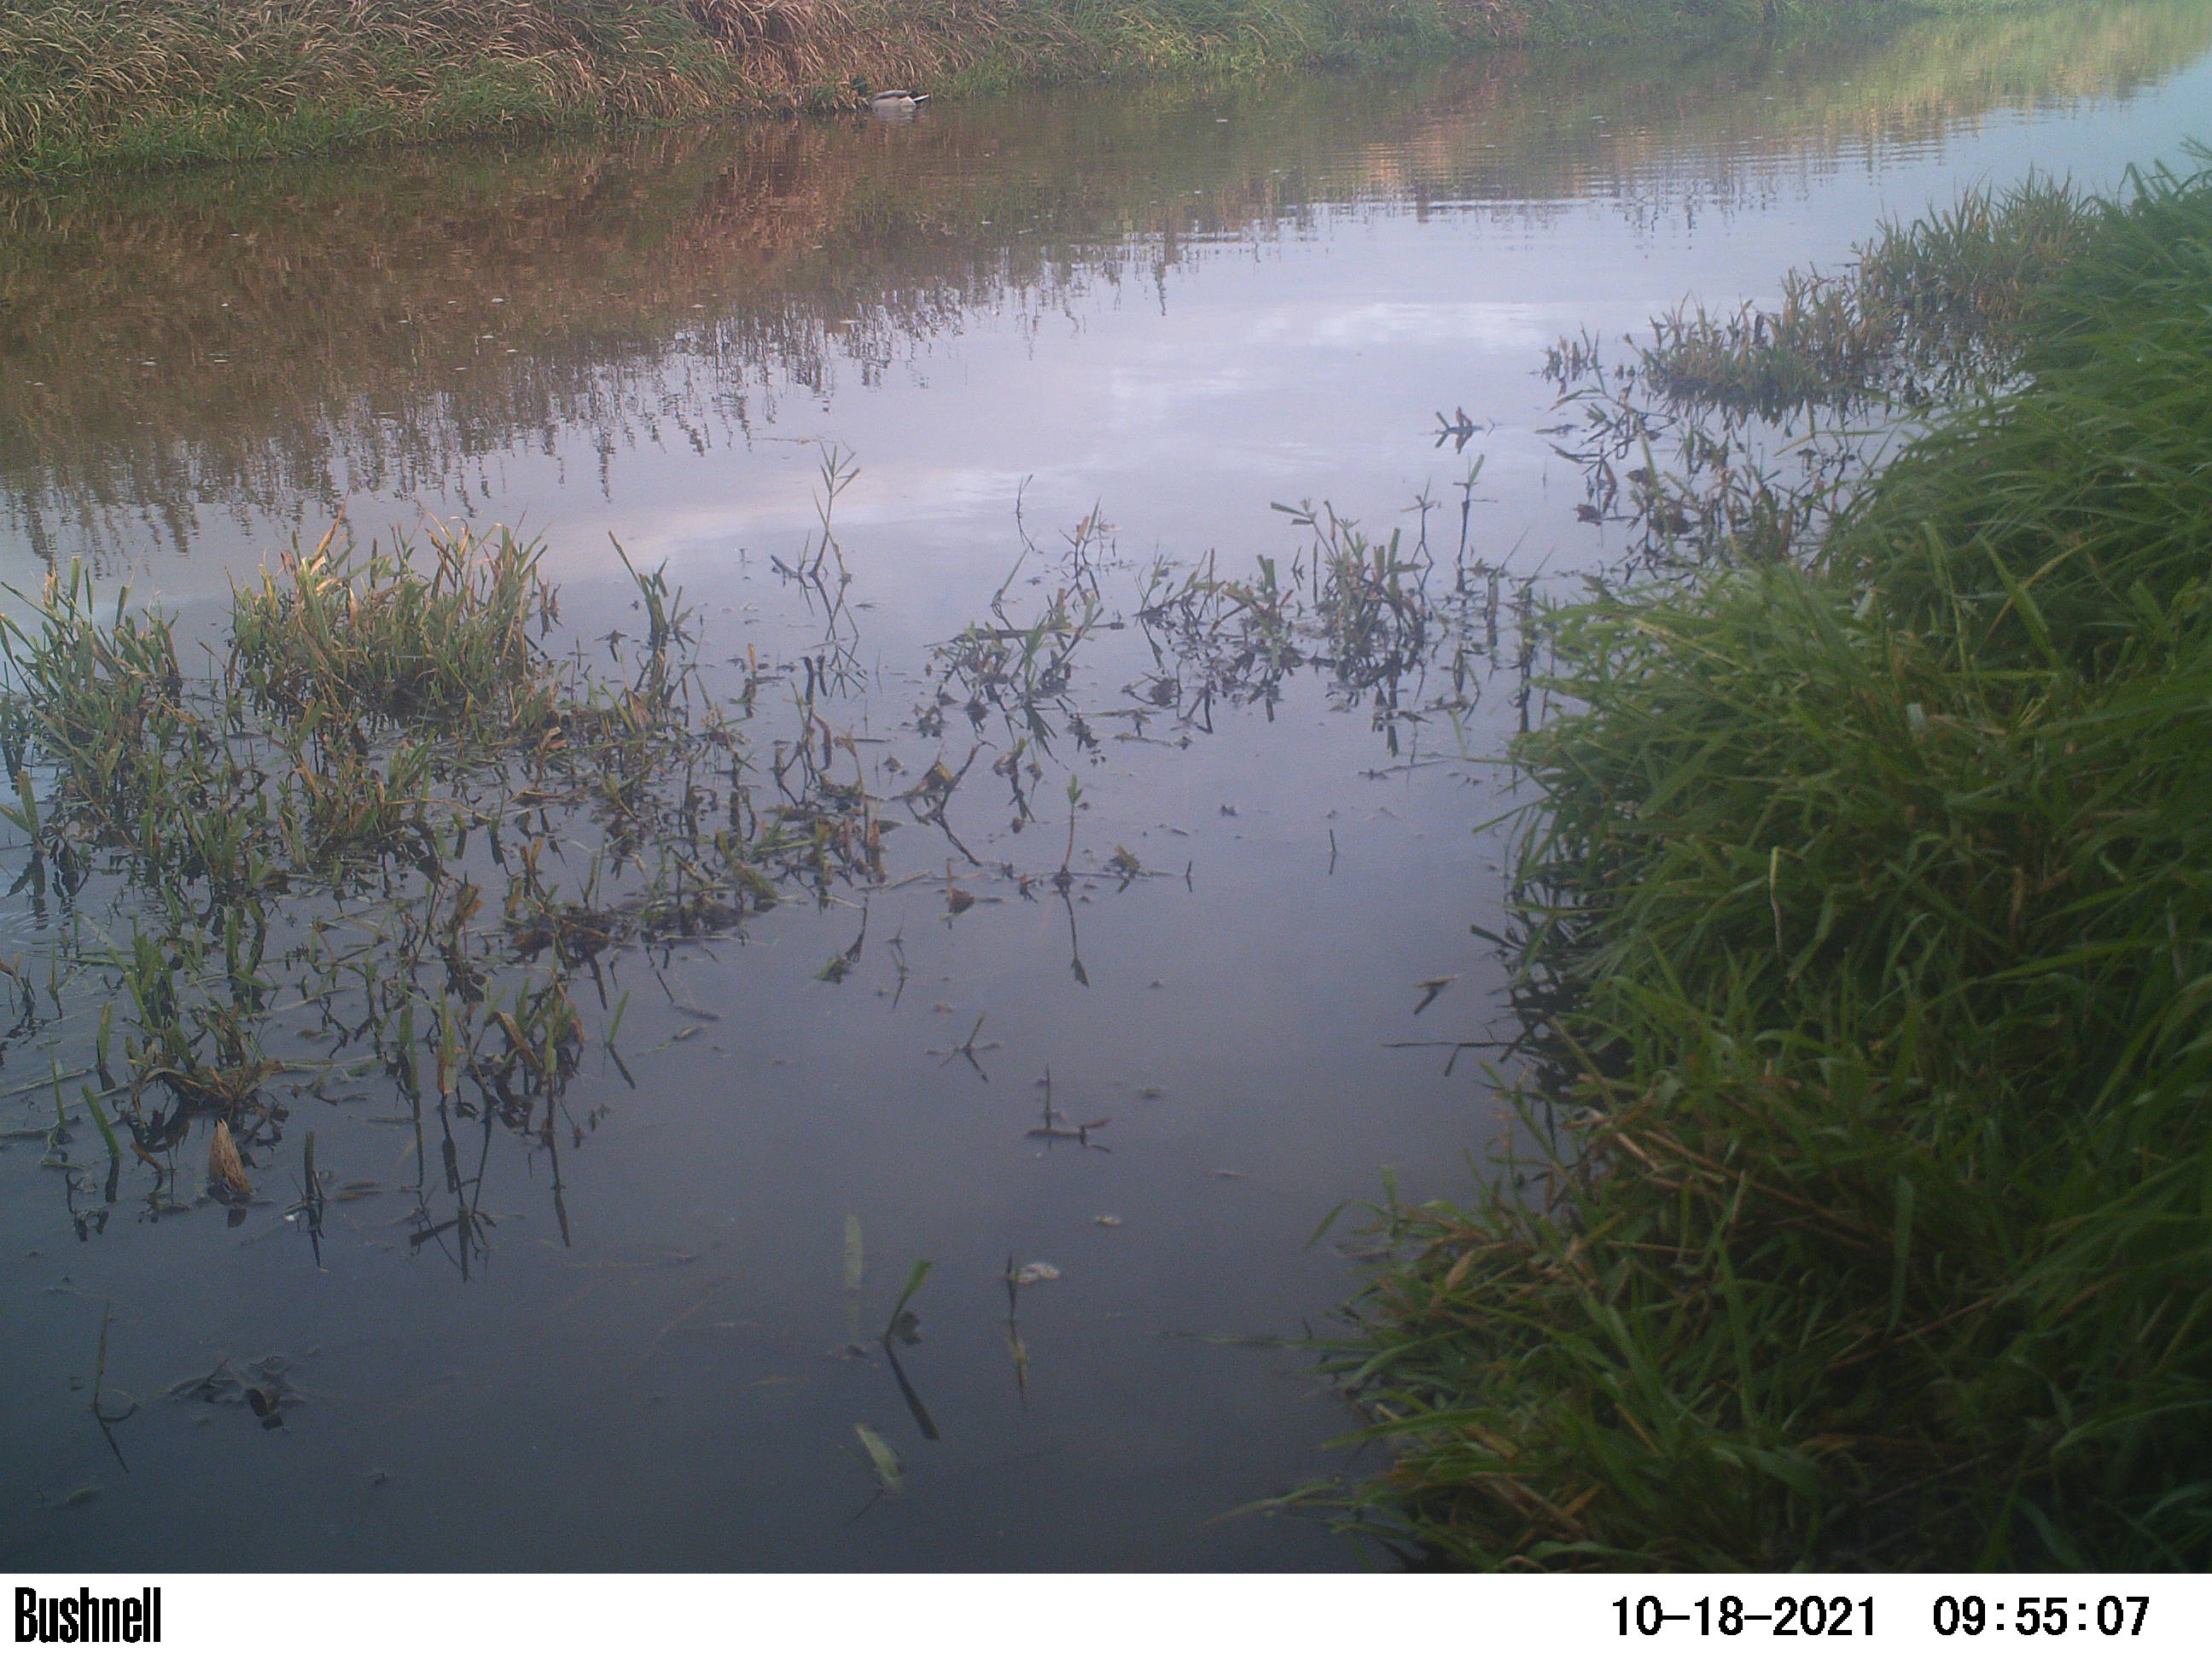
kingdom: Animalia
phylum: Chordata
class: Aves
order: Gruiformes
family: Rallidae
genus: Fulica
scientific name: Fulica atra
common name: Eurasian coot
